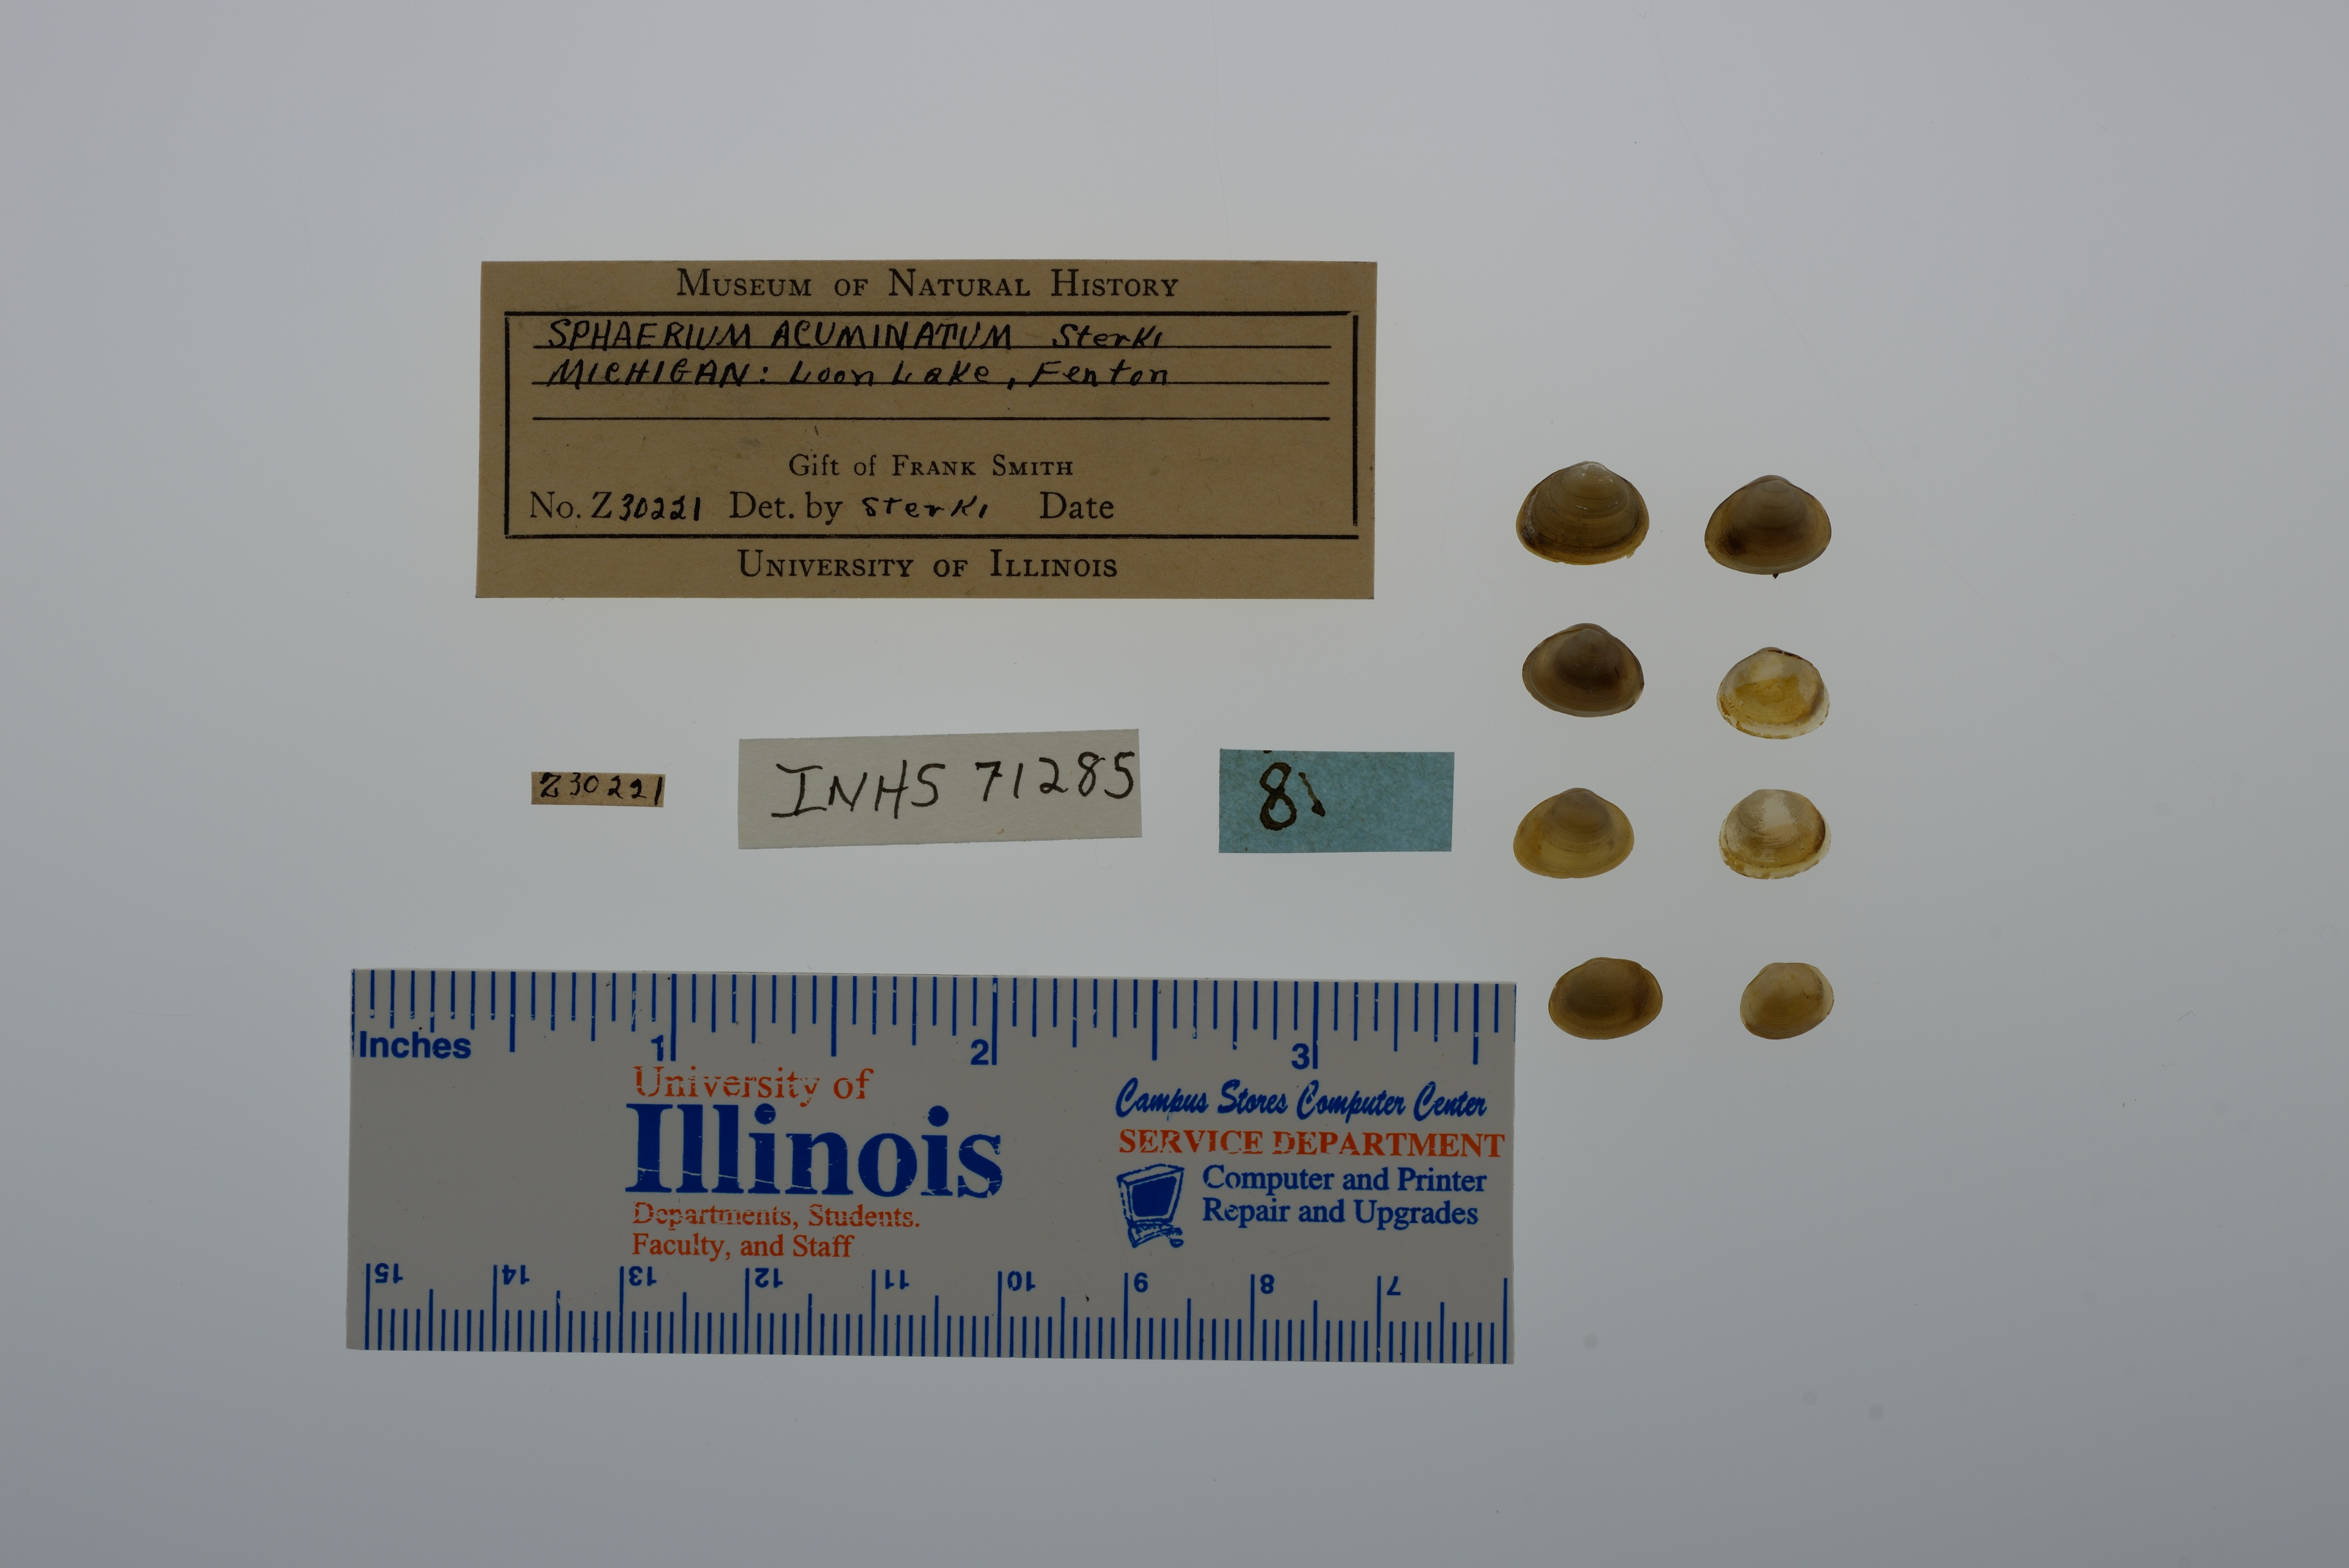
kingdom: Animalia
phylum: Mollusca
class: Bivalvia
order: Sphaeriida
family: Sphaeriidae
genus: Sphaerium
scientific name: Sphaerium striatinum
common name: Striated fingernailclam
